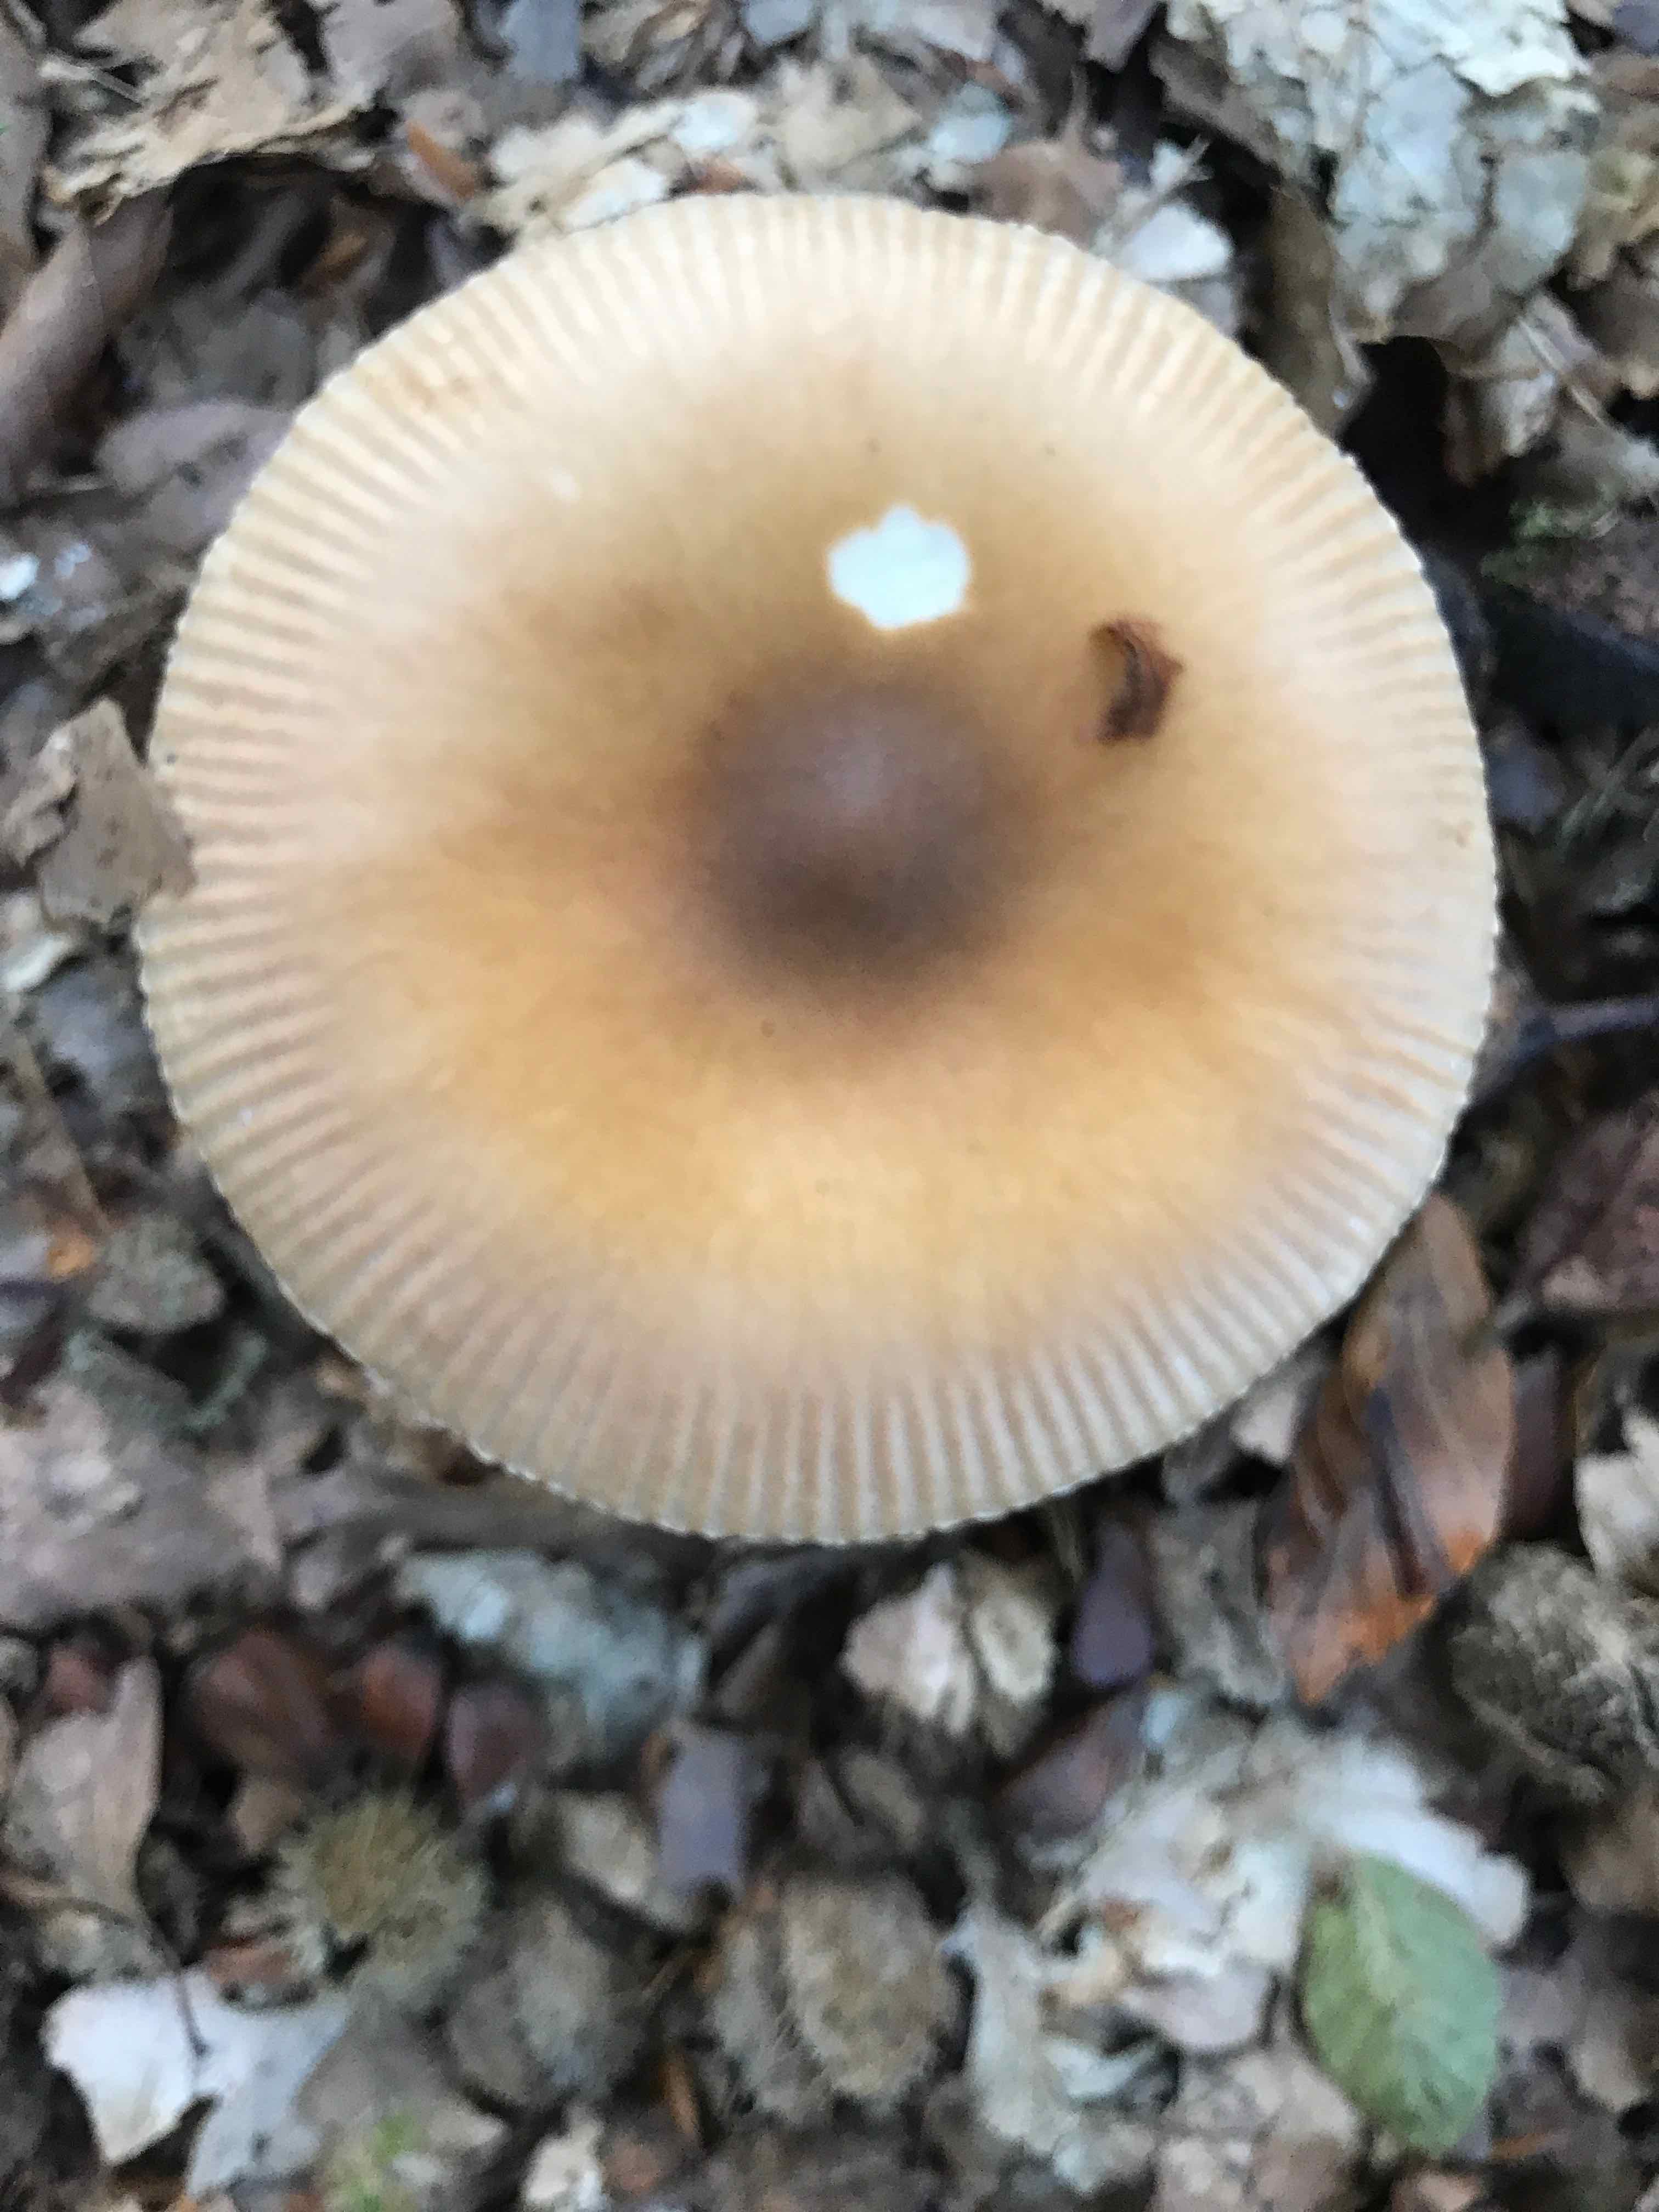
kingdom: Fungi
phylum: Basidiomycota
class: Agaricomycetes
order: Agaricales
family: Amanitaceae
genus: Amanita
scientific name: Amanita fulva
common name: brun kam-fluesvamp
